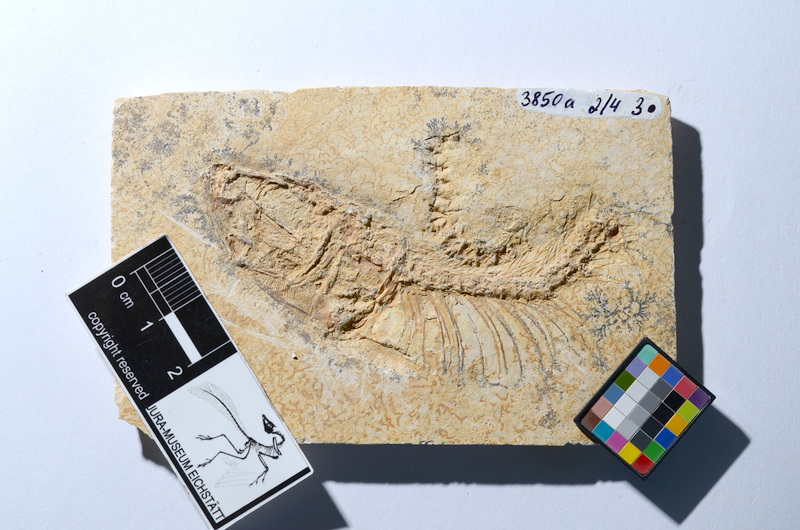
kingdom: Animalia
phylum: Chordata
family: Ascalaboidae
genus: Tharsis
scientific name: Tharsis dubius
